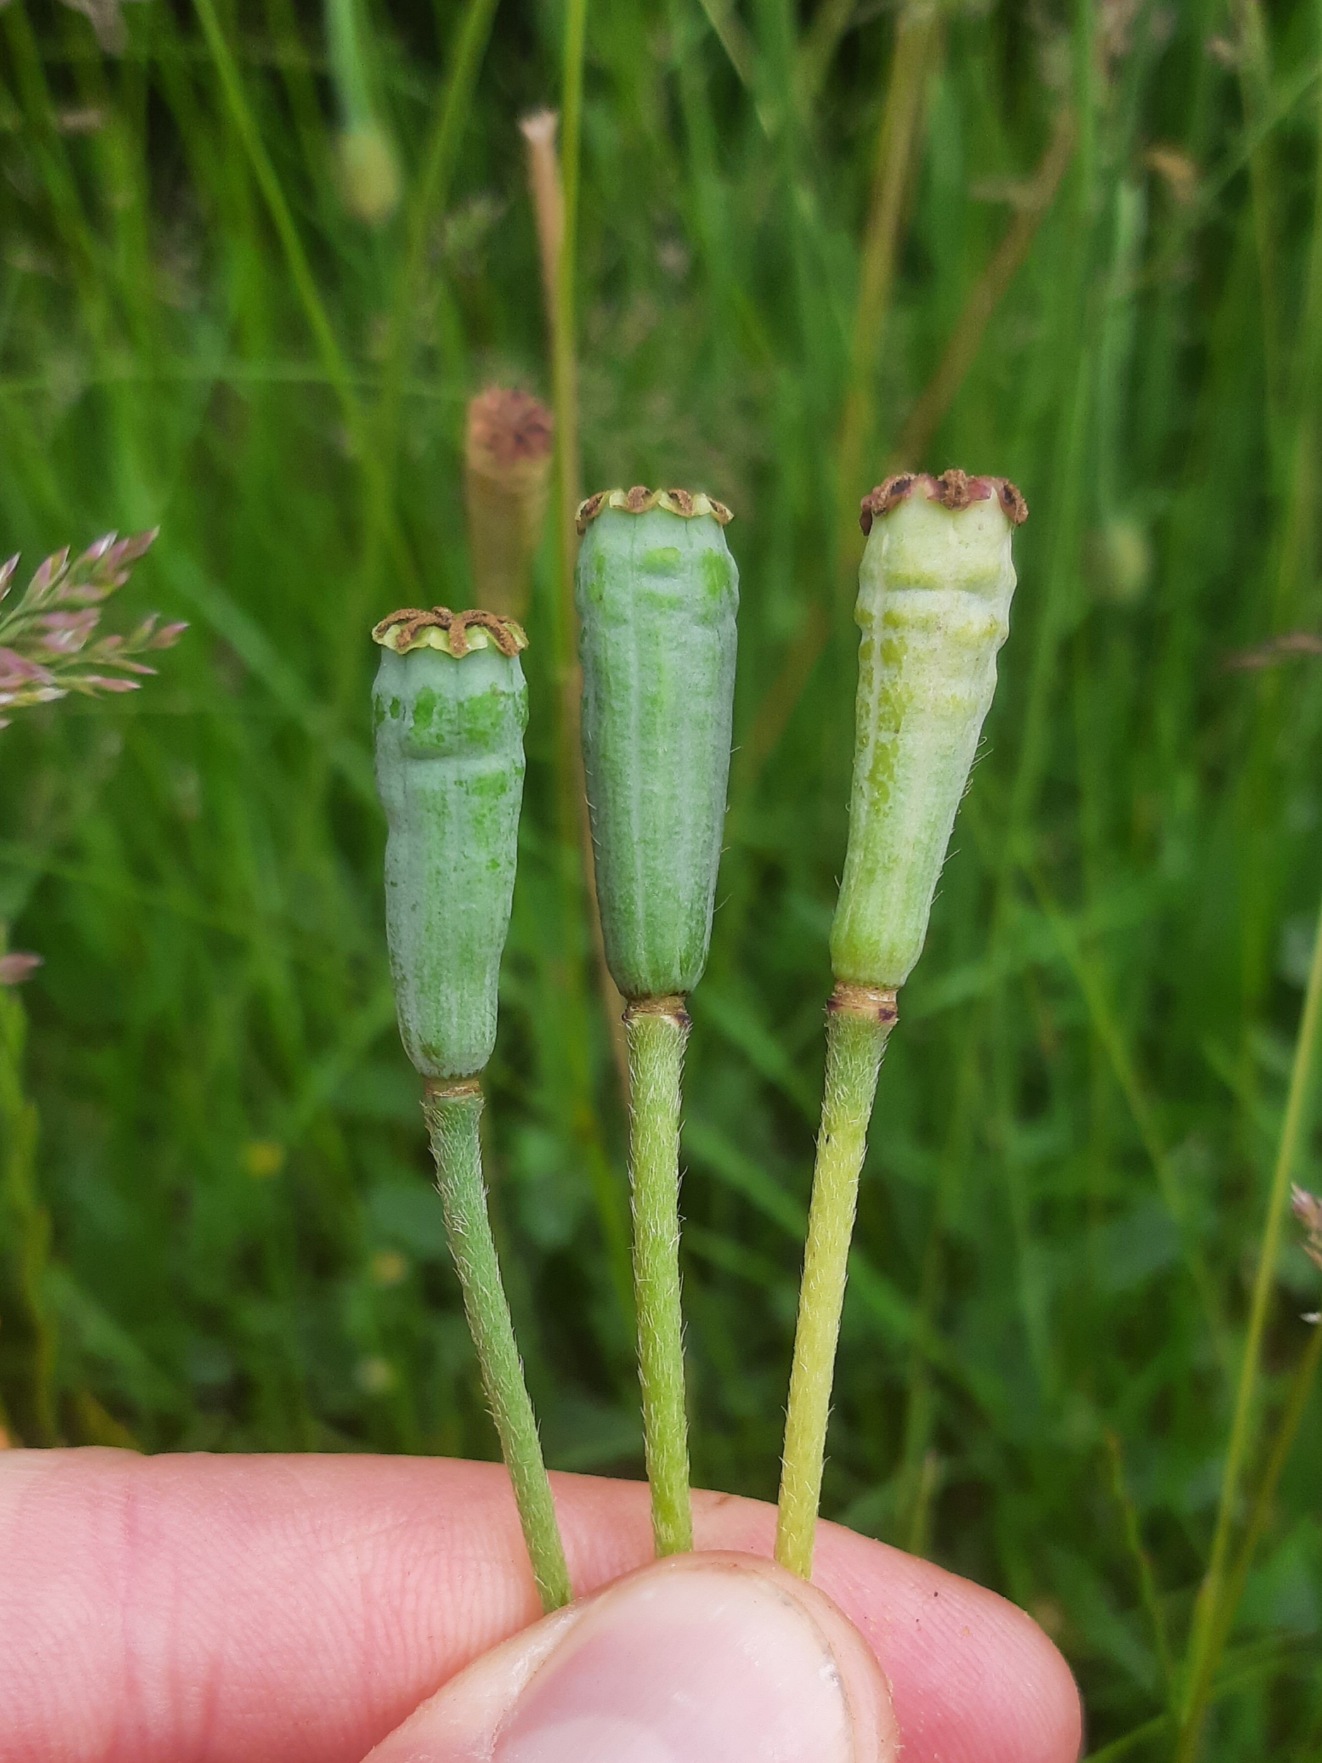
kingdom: Plantae
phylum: Tracheophyta
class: Magnoliopsida
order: Ranunculales
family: Papaveraceae
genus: Papaver
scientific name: Papaver atlanticum
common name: Atlas-valmue
